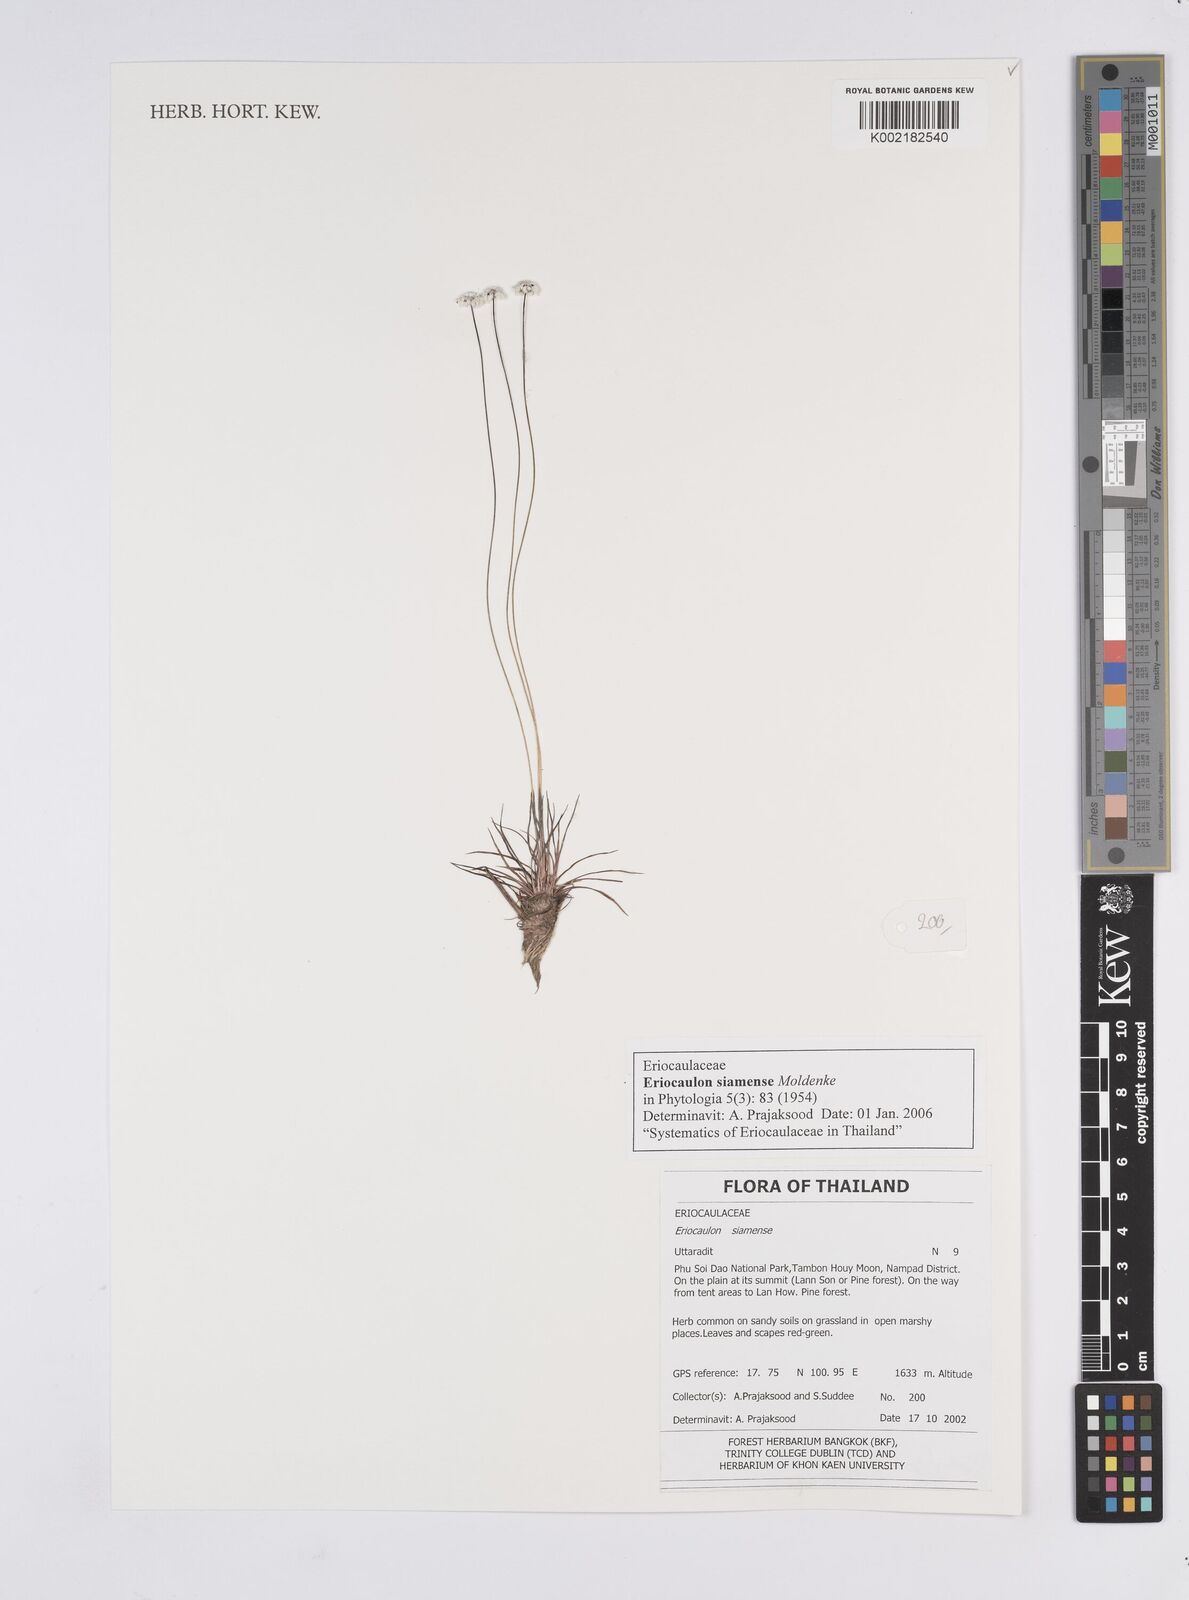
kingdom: Plantae
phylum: Tracheophyta
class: Liliopsida
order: Poales
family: Eriocaulaceae
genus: Eriocaulon
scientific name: Eriocaulon siamense
